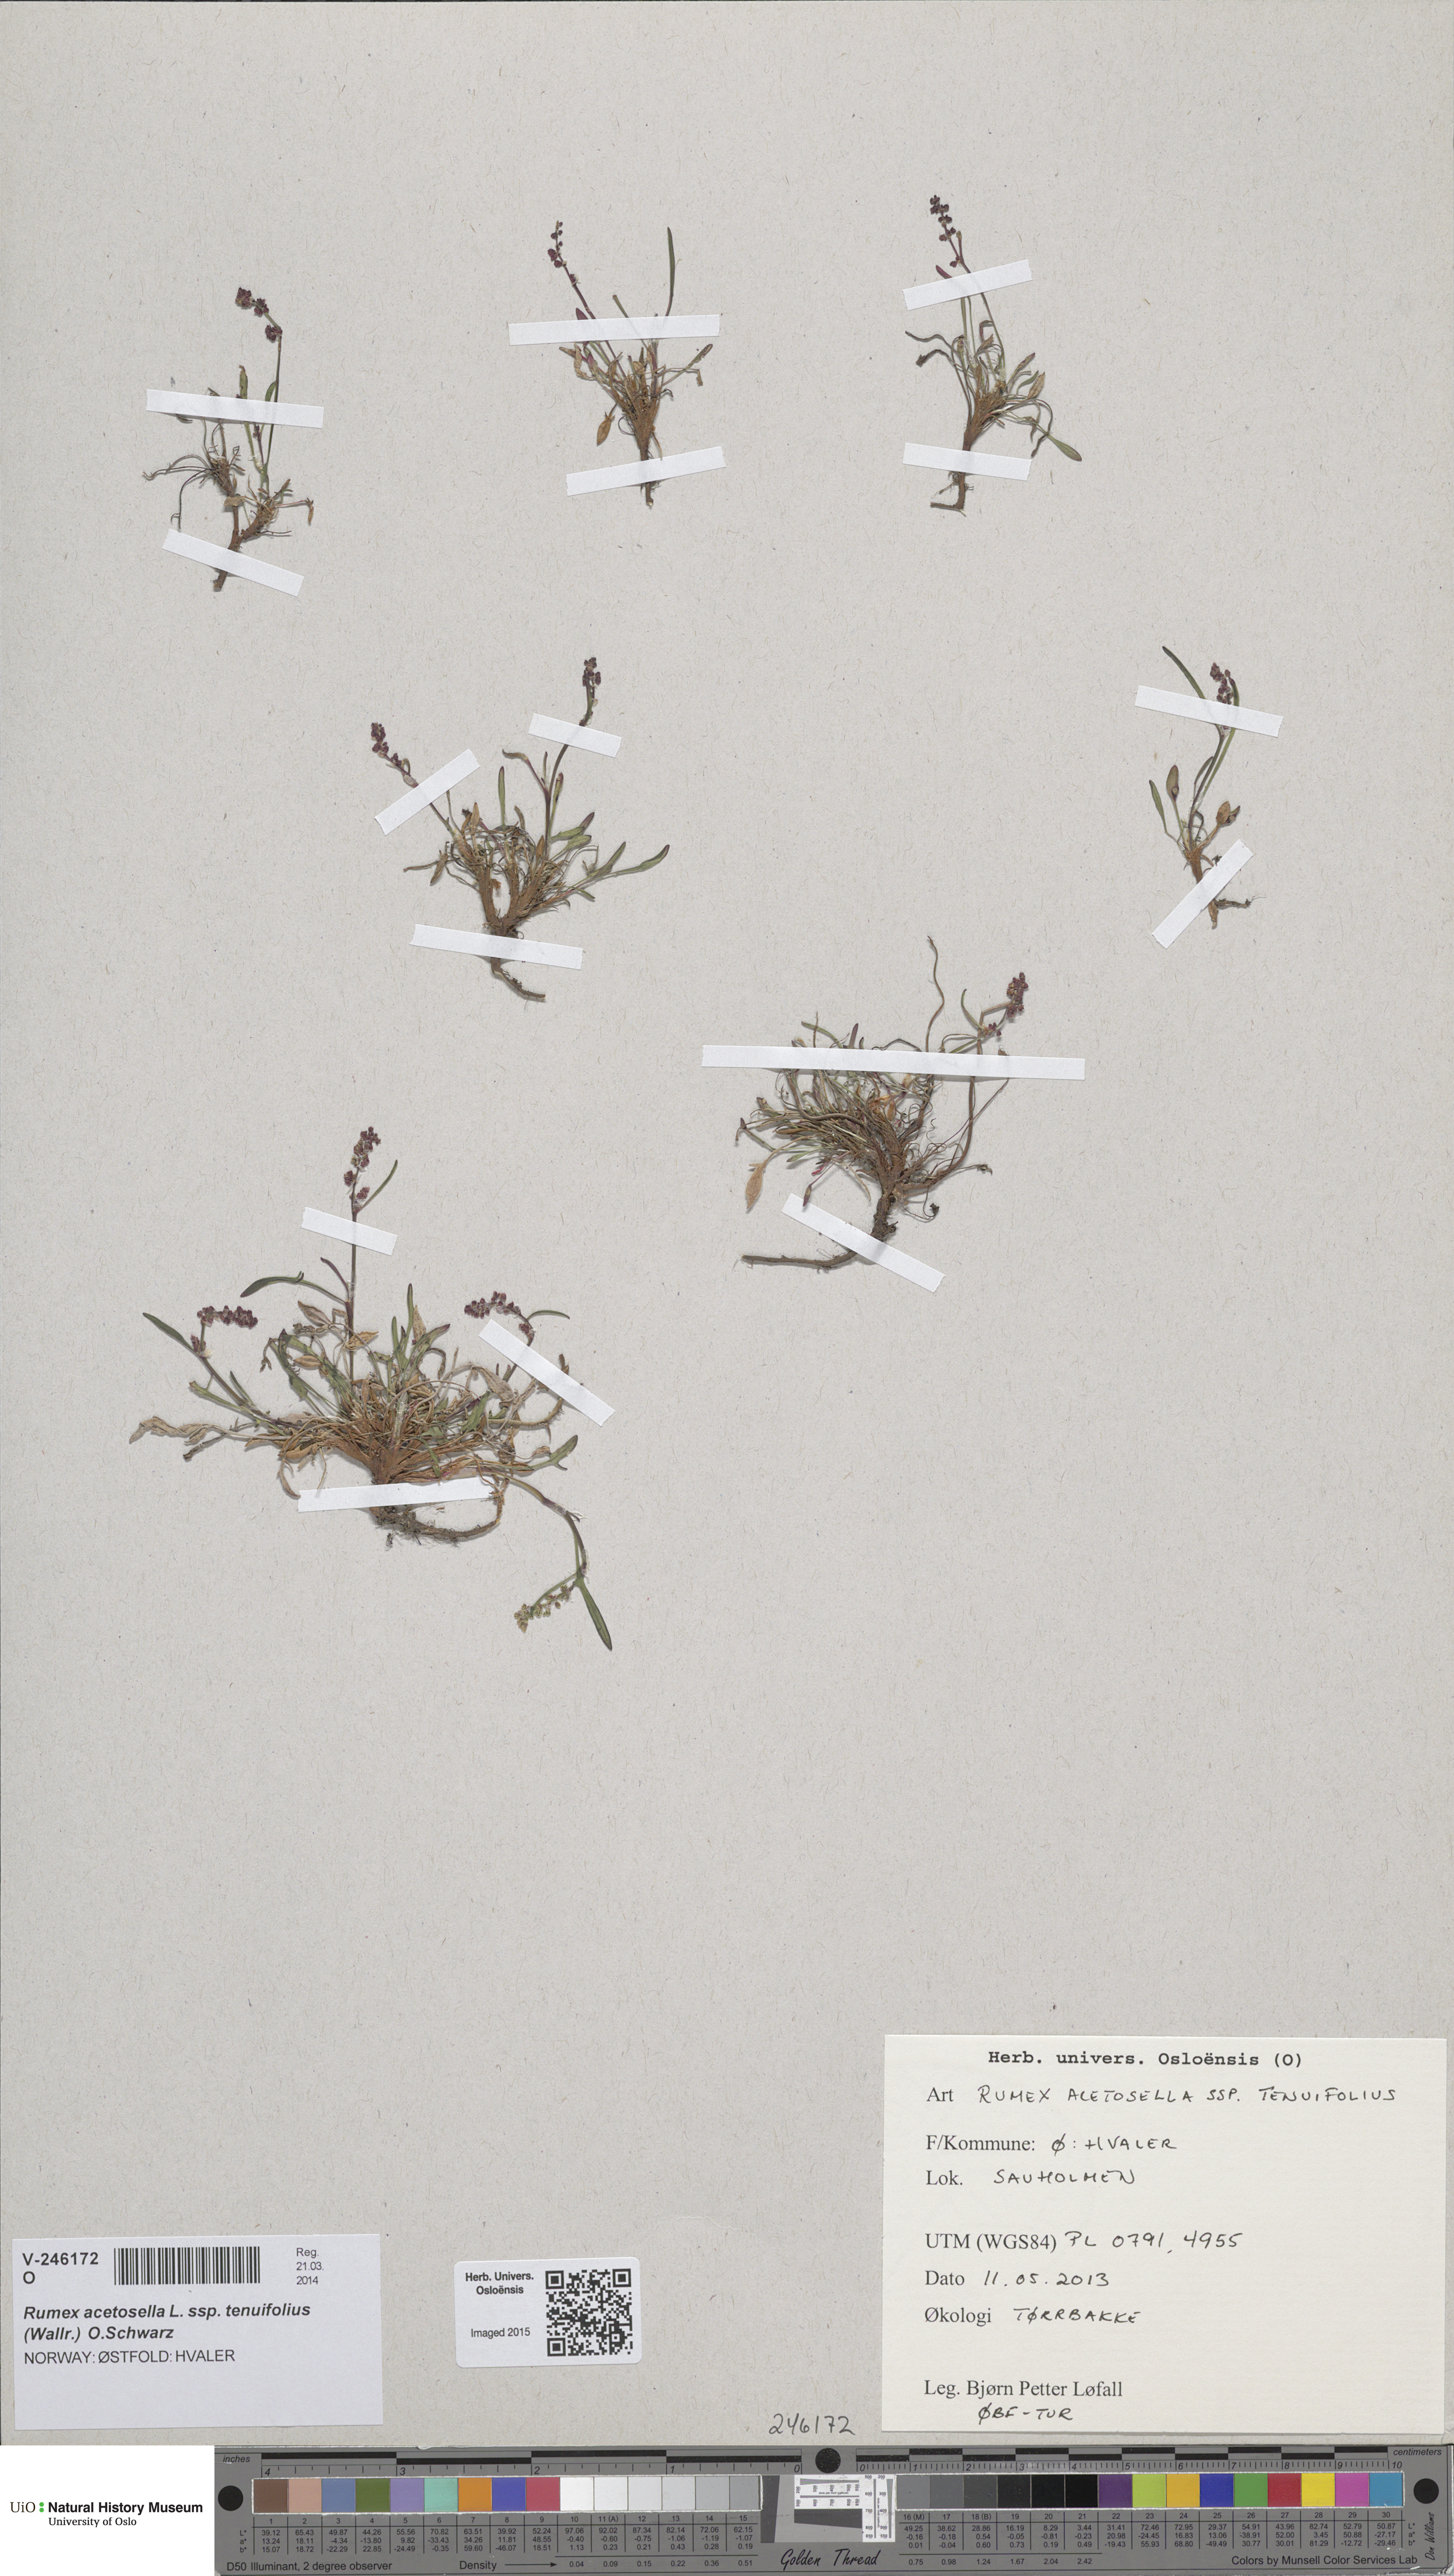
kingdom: Plantae
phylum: Tracheophyta
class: Magnoliopsida
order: Caryophyllales
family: Polygonaceae
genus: Rumex
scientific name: Rumex acetosella
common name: Common sheep sorrel
